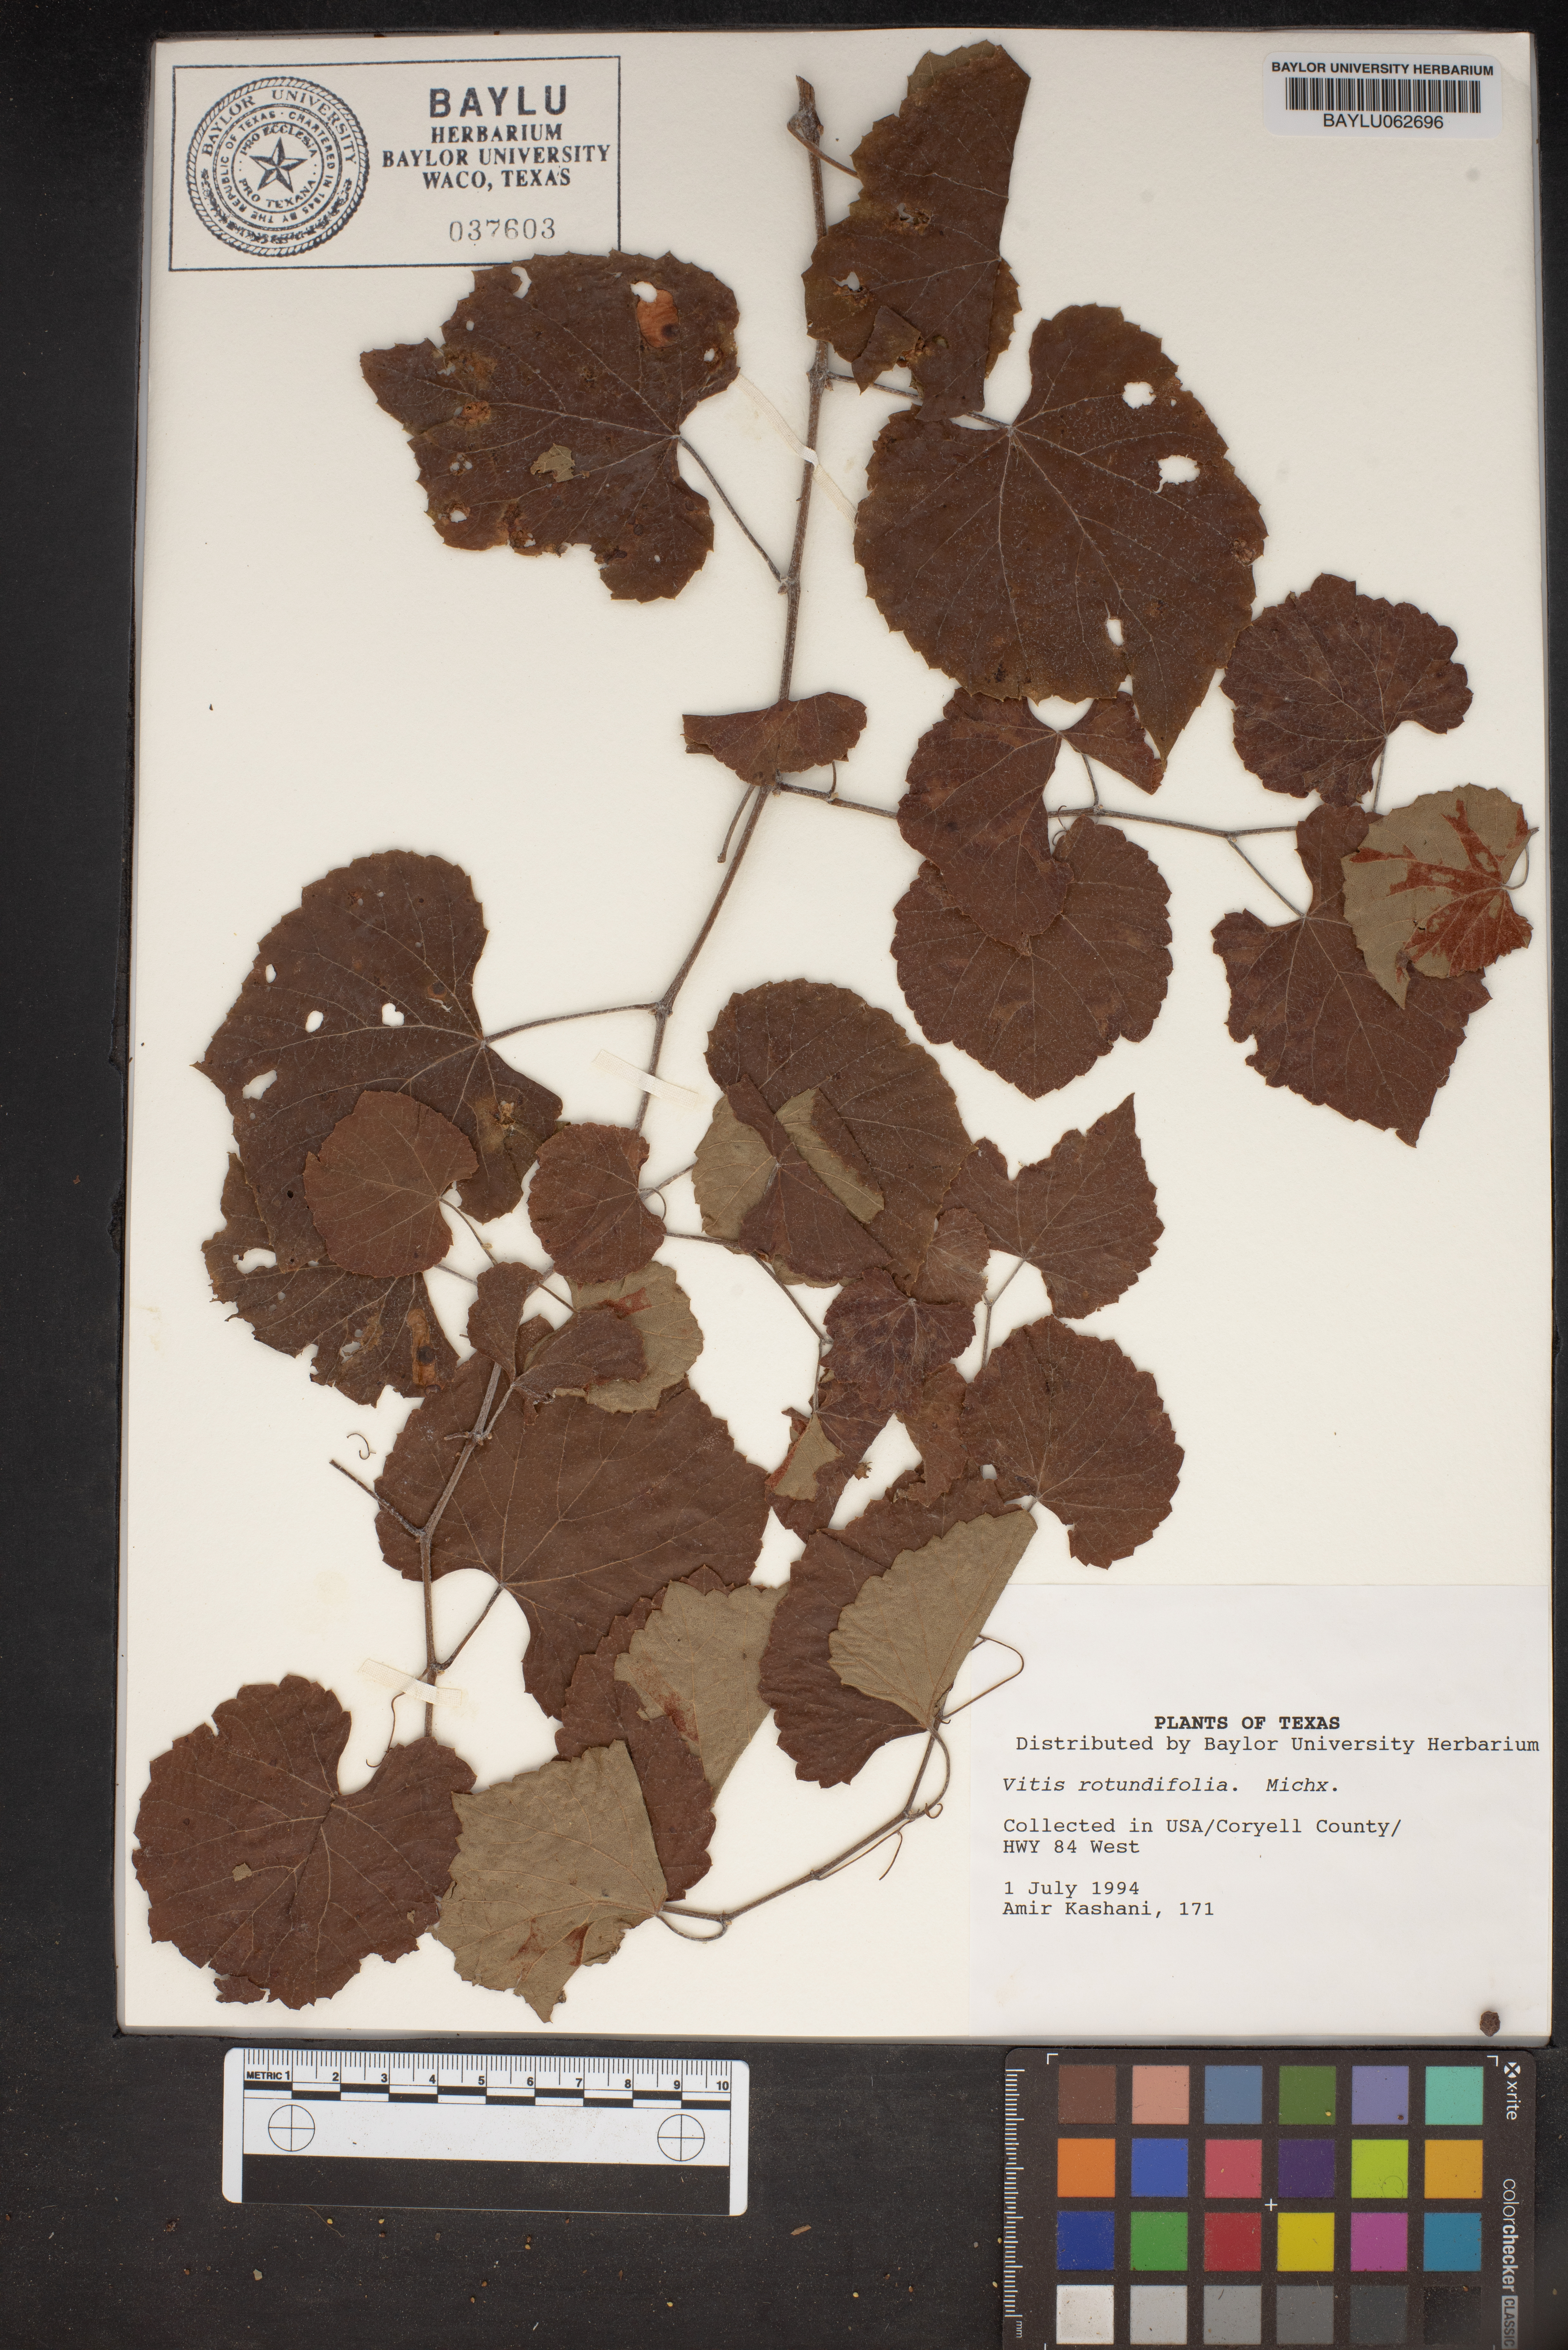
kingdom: Plantae
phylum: Tracheophyta
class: Magnoliopsida
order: Vitales
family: Vitaceae
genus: Vitis
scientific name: Vitis rotundifolia
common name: Muscadine grape
